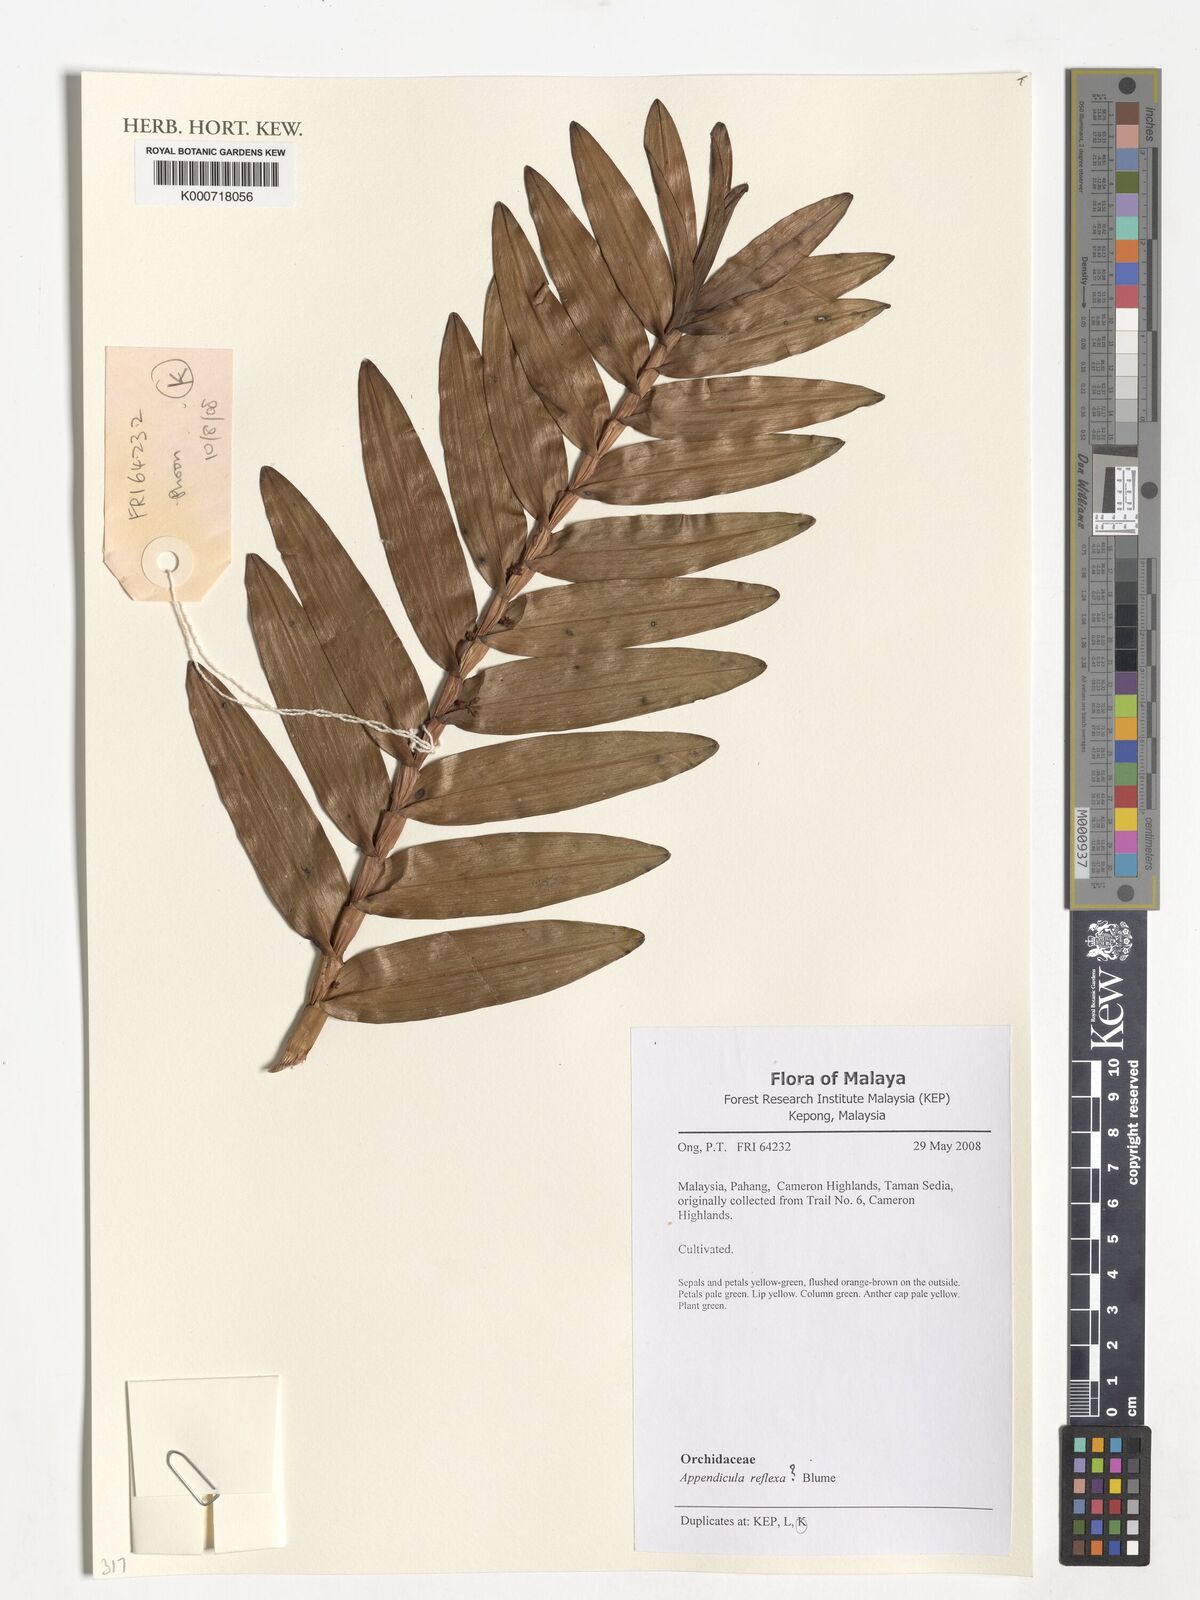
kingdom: Plantae
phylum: Tracheophyta
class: Liliopsida
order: Asparagales
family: Orchidaceae
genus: Appendicula
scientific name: Appendicula reflexa
